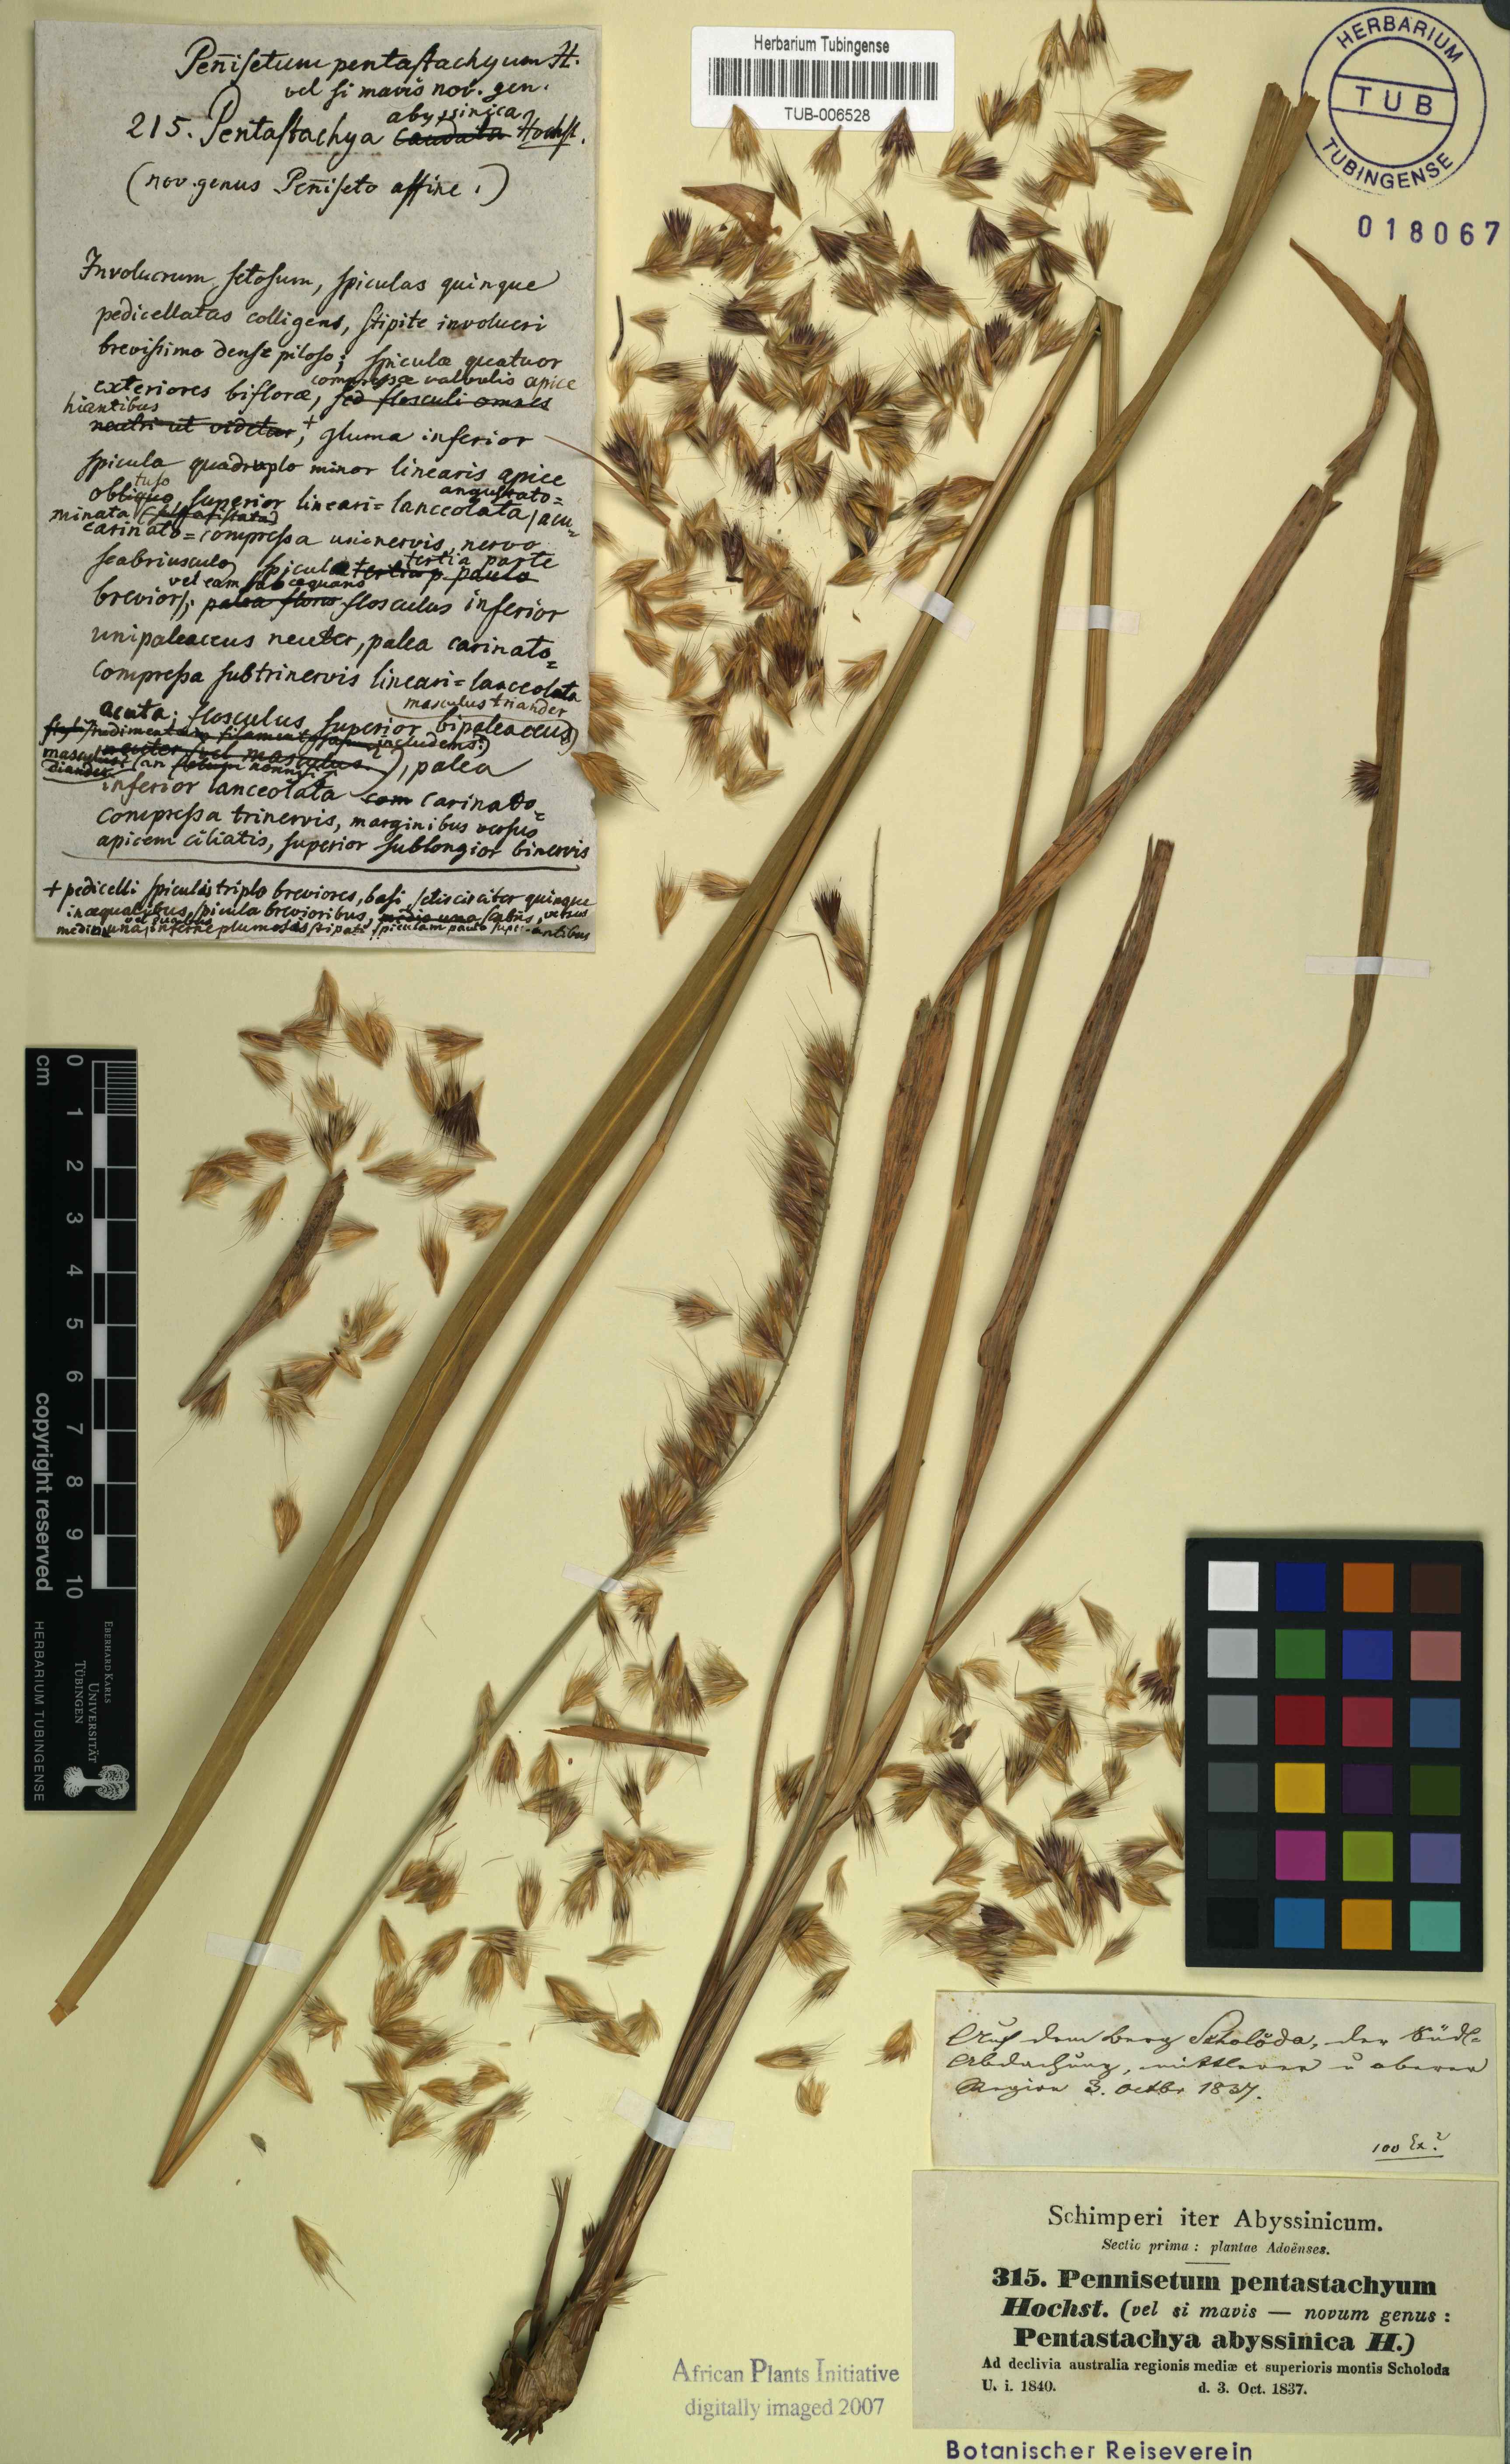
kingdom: Plantae
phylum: Tracheophyta
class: Liliopsida
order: Poales
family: Poaceae
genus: Cenchrus
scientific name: Cenchrus squamulatus
